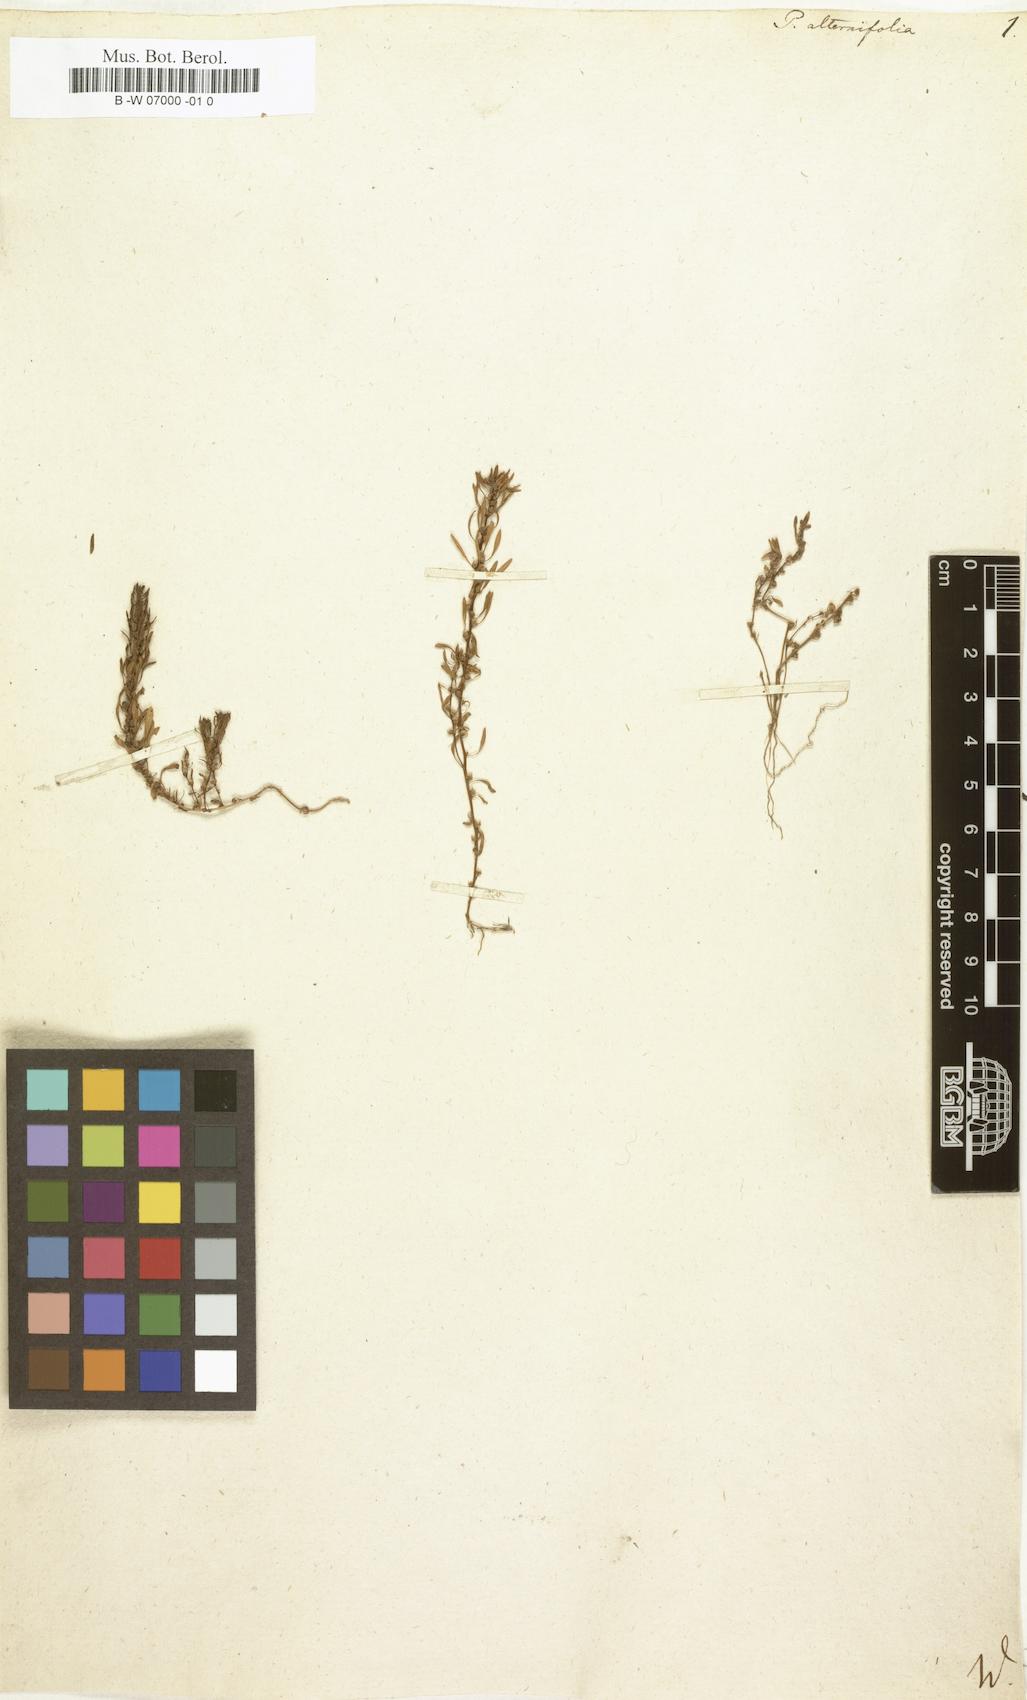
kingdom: Plantae
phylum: Tracheophyta
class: Magnoliopsida
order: Myrtales
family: Lythraceae
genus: Lythrum
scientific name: Lythrum volgense
